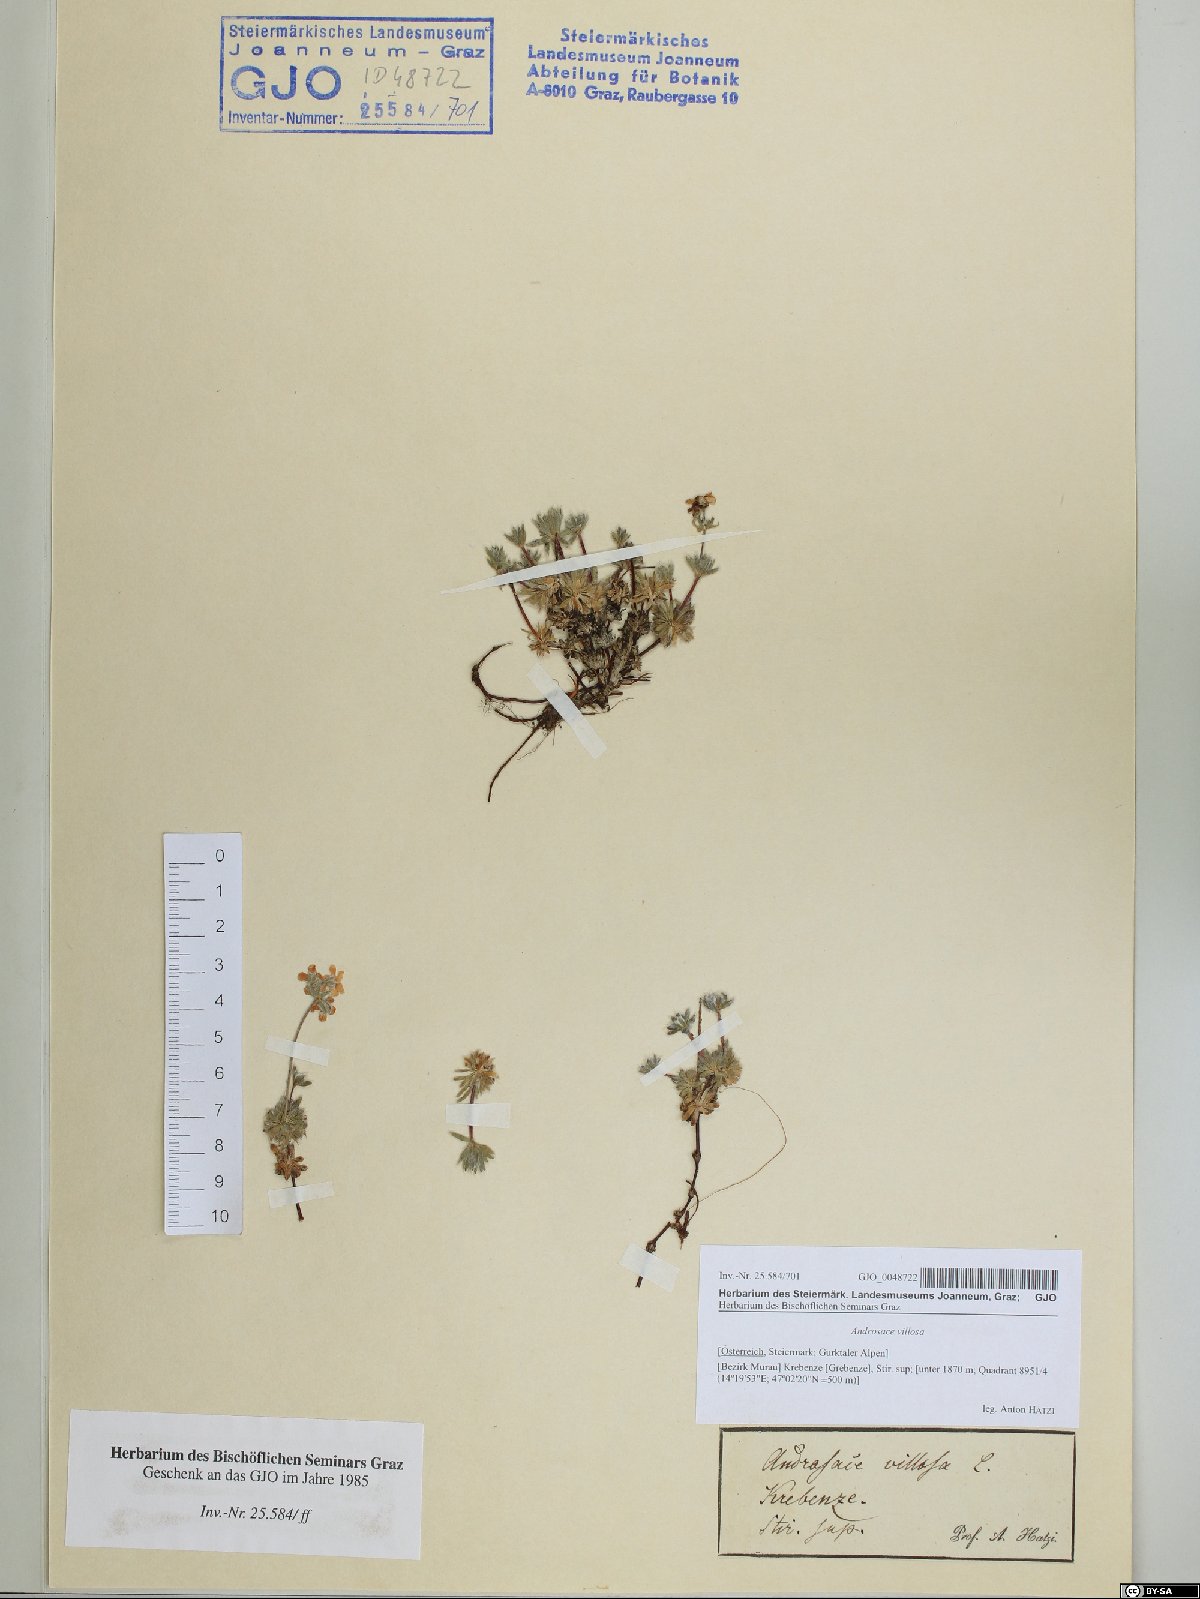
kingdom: Plantae
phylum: Tracheophyta
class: Magnoliopsida
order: Ericales
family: Primulaceae
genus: Androsace
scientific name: Androsace villosa
